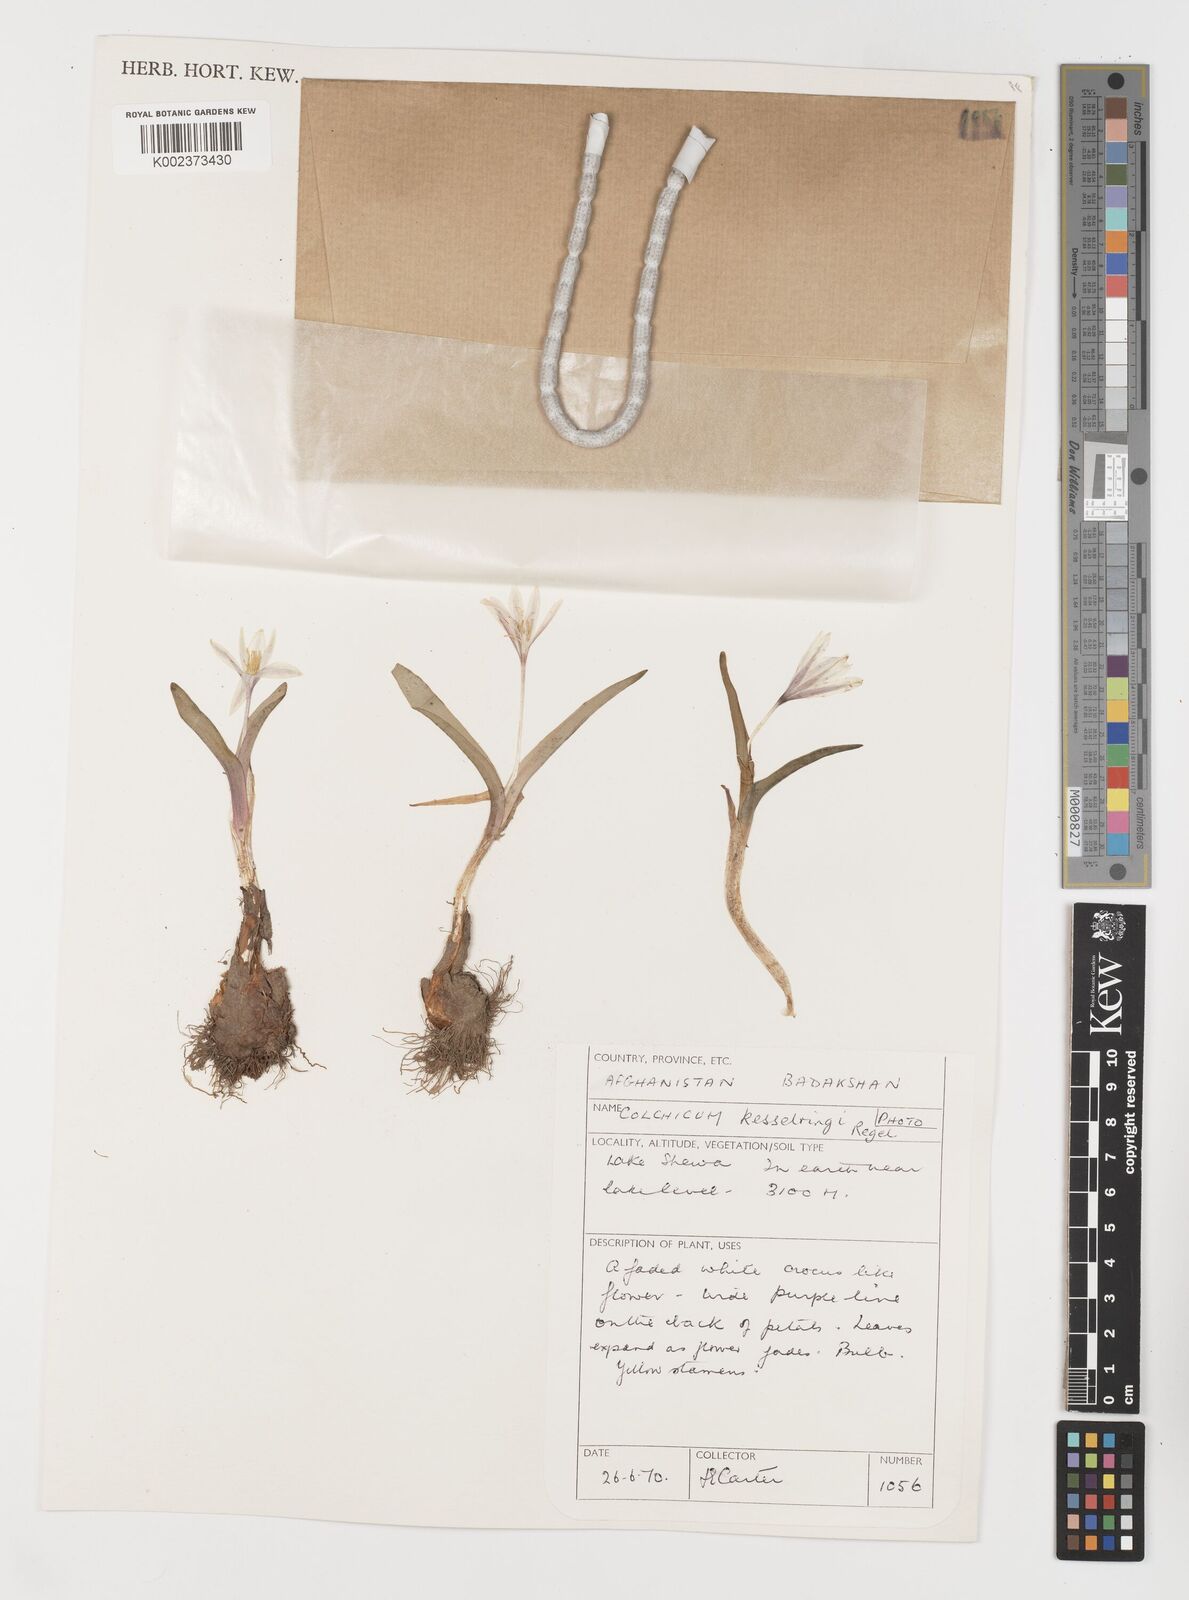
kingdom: Plantae
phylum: Tracheophyta
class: Liliopsida
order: Liliales
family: Colchicaceae
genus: Colchicum
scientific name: Colchicum kesselringii
